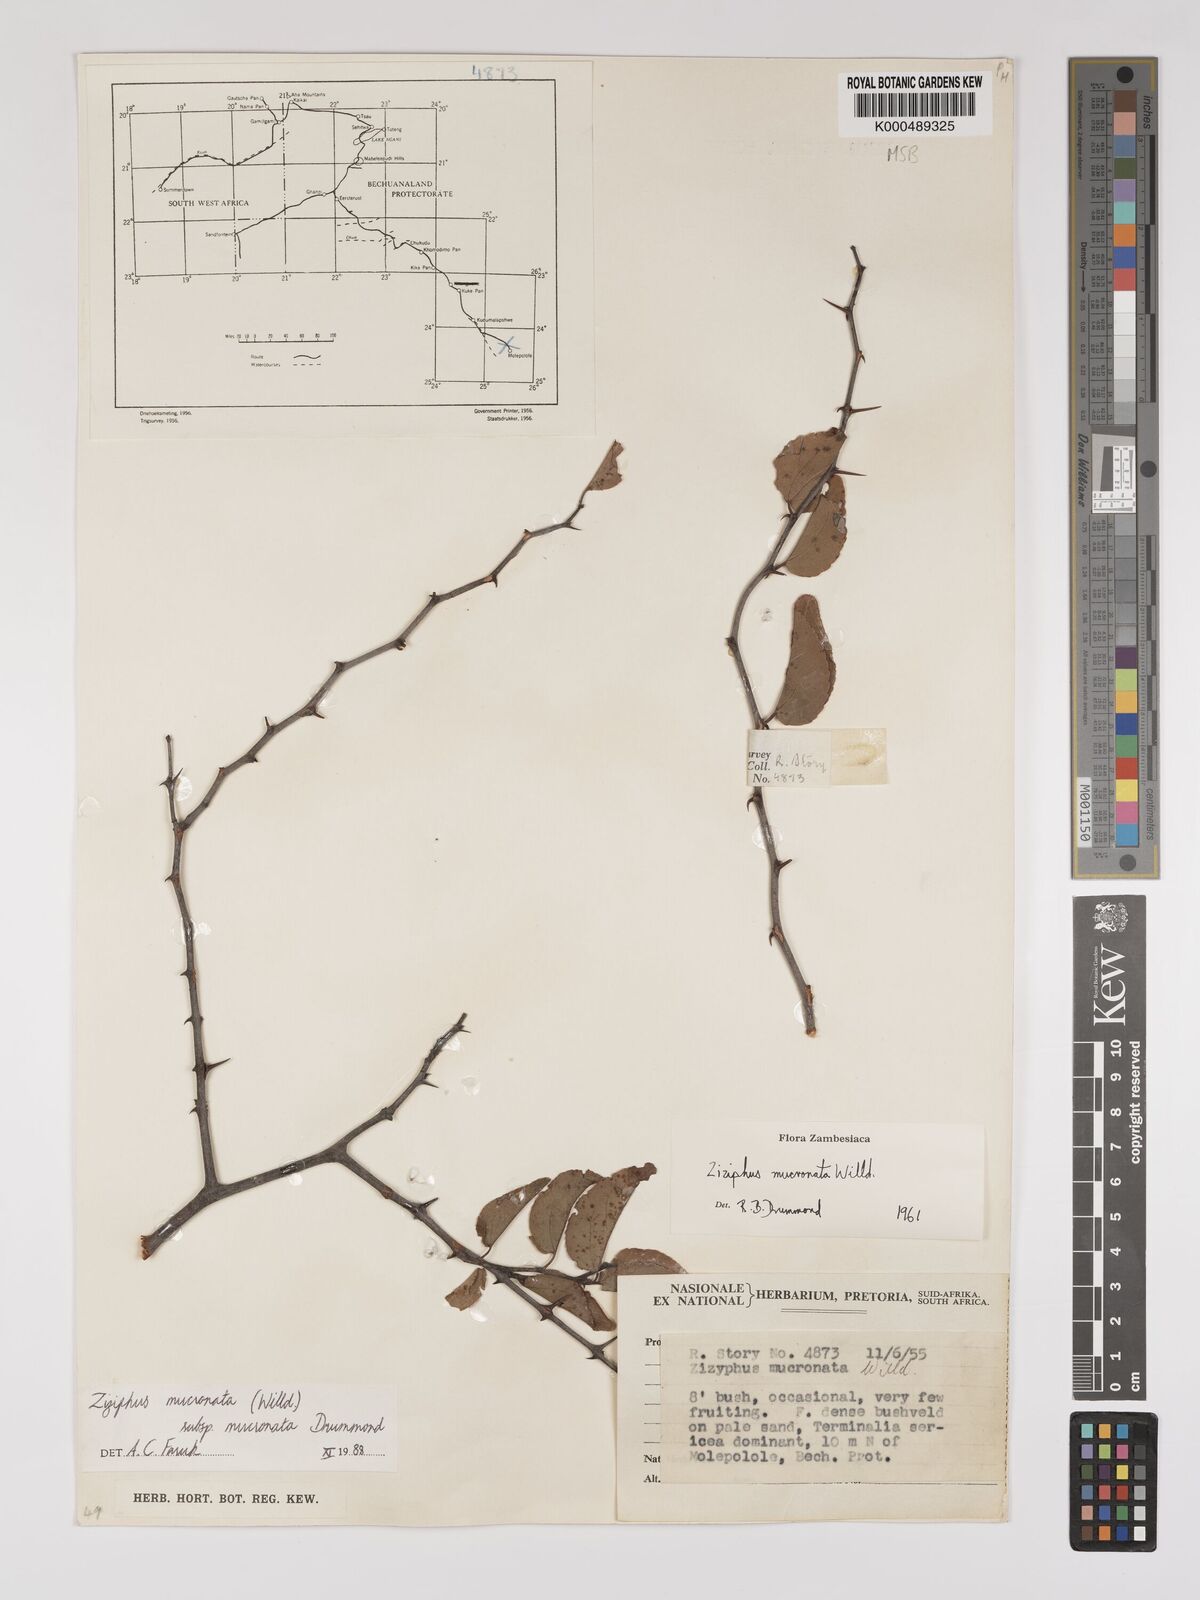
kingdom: Plantae
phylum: Tracheophyta
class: Magnoliopsida
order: Rosales
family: Rhamnaceae
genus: Ziziphus
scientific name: Ziziphus mucronata
